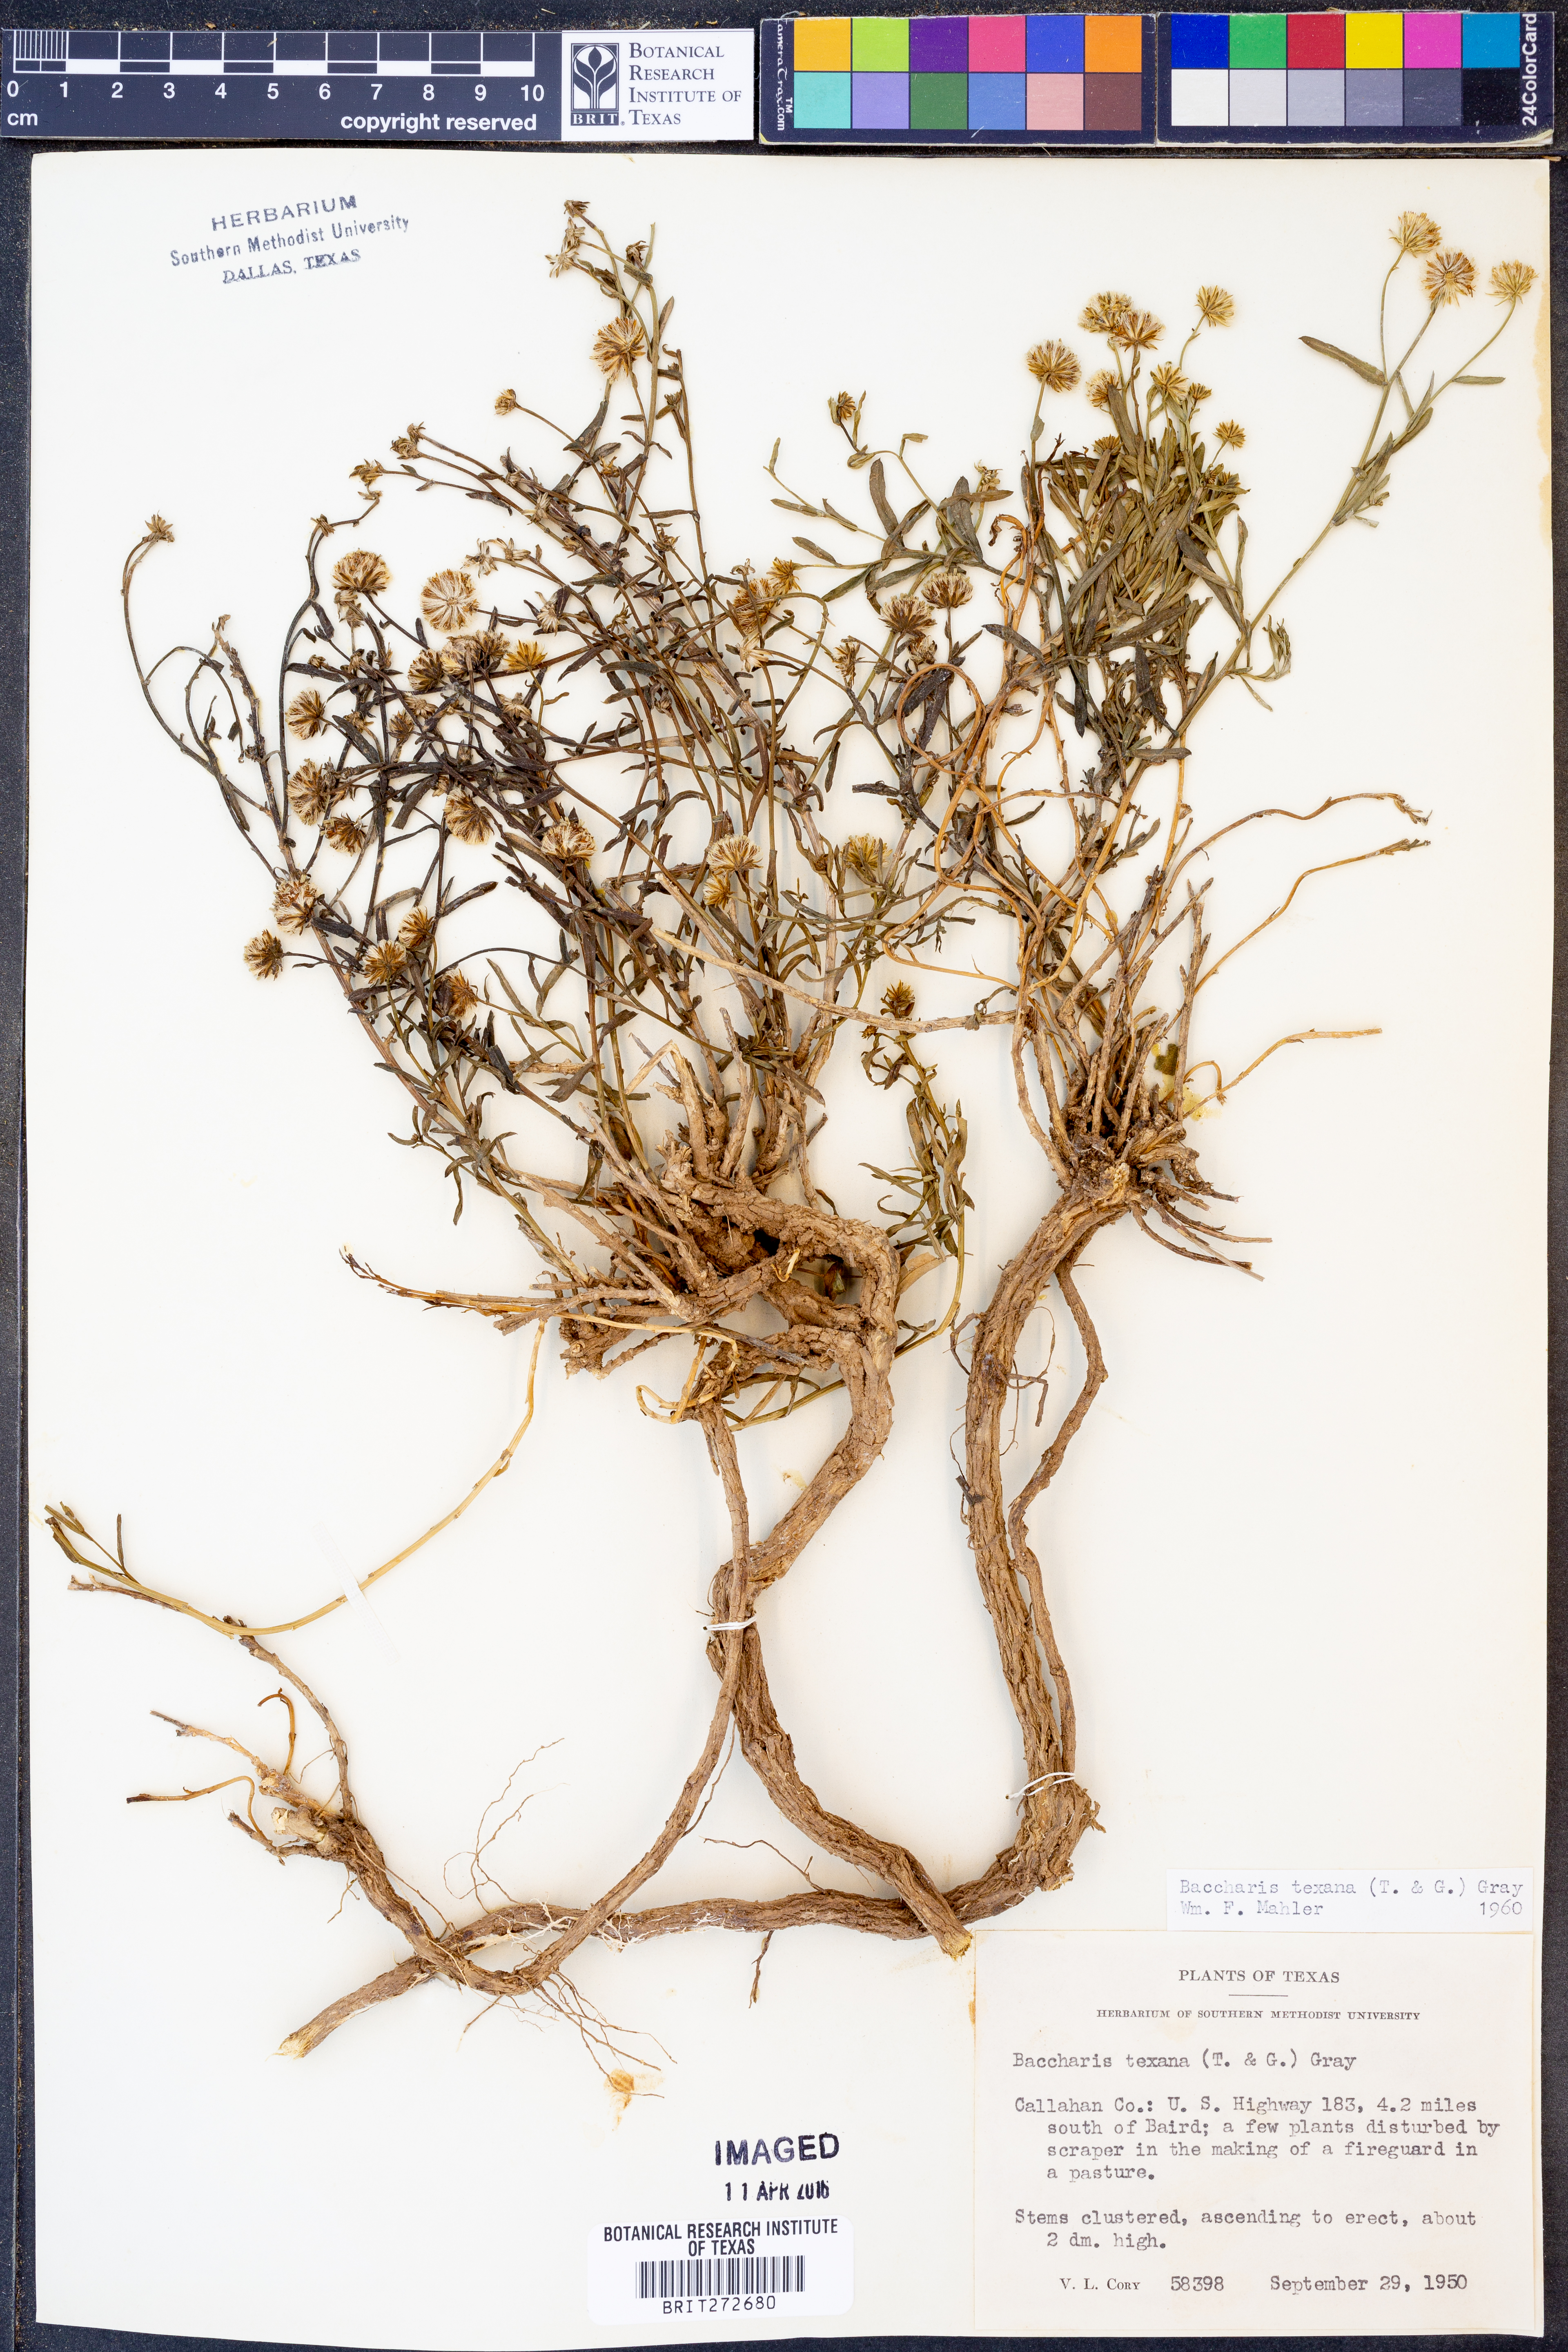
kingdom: Plantae
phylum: Tracheophyta
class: Magnoliopsida
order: Asterales
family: Asteraceae
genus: Baccharis
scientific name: Baccharis texana
